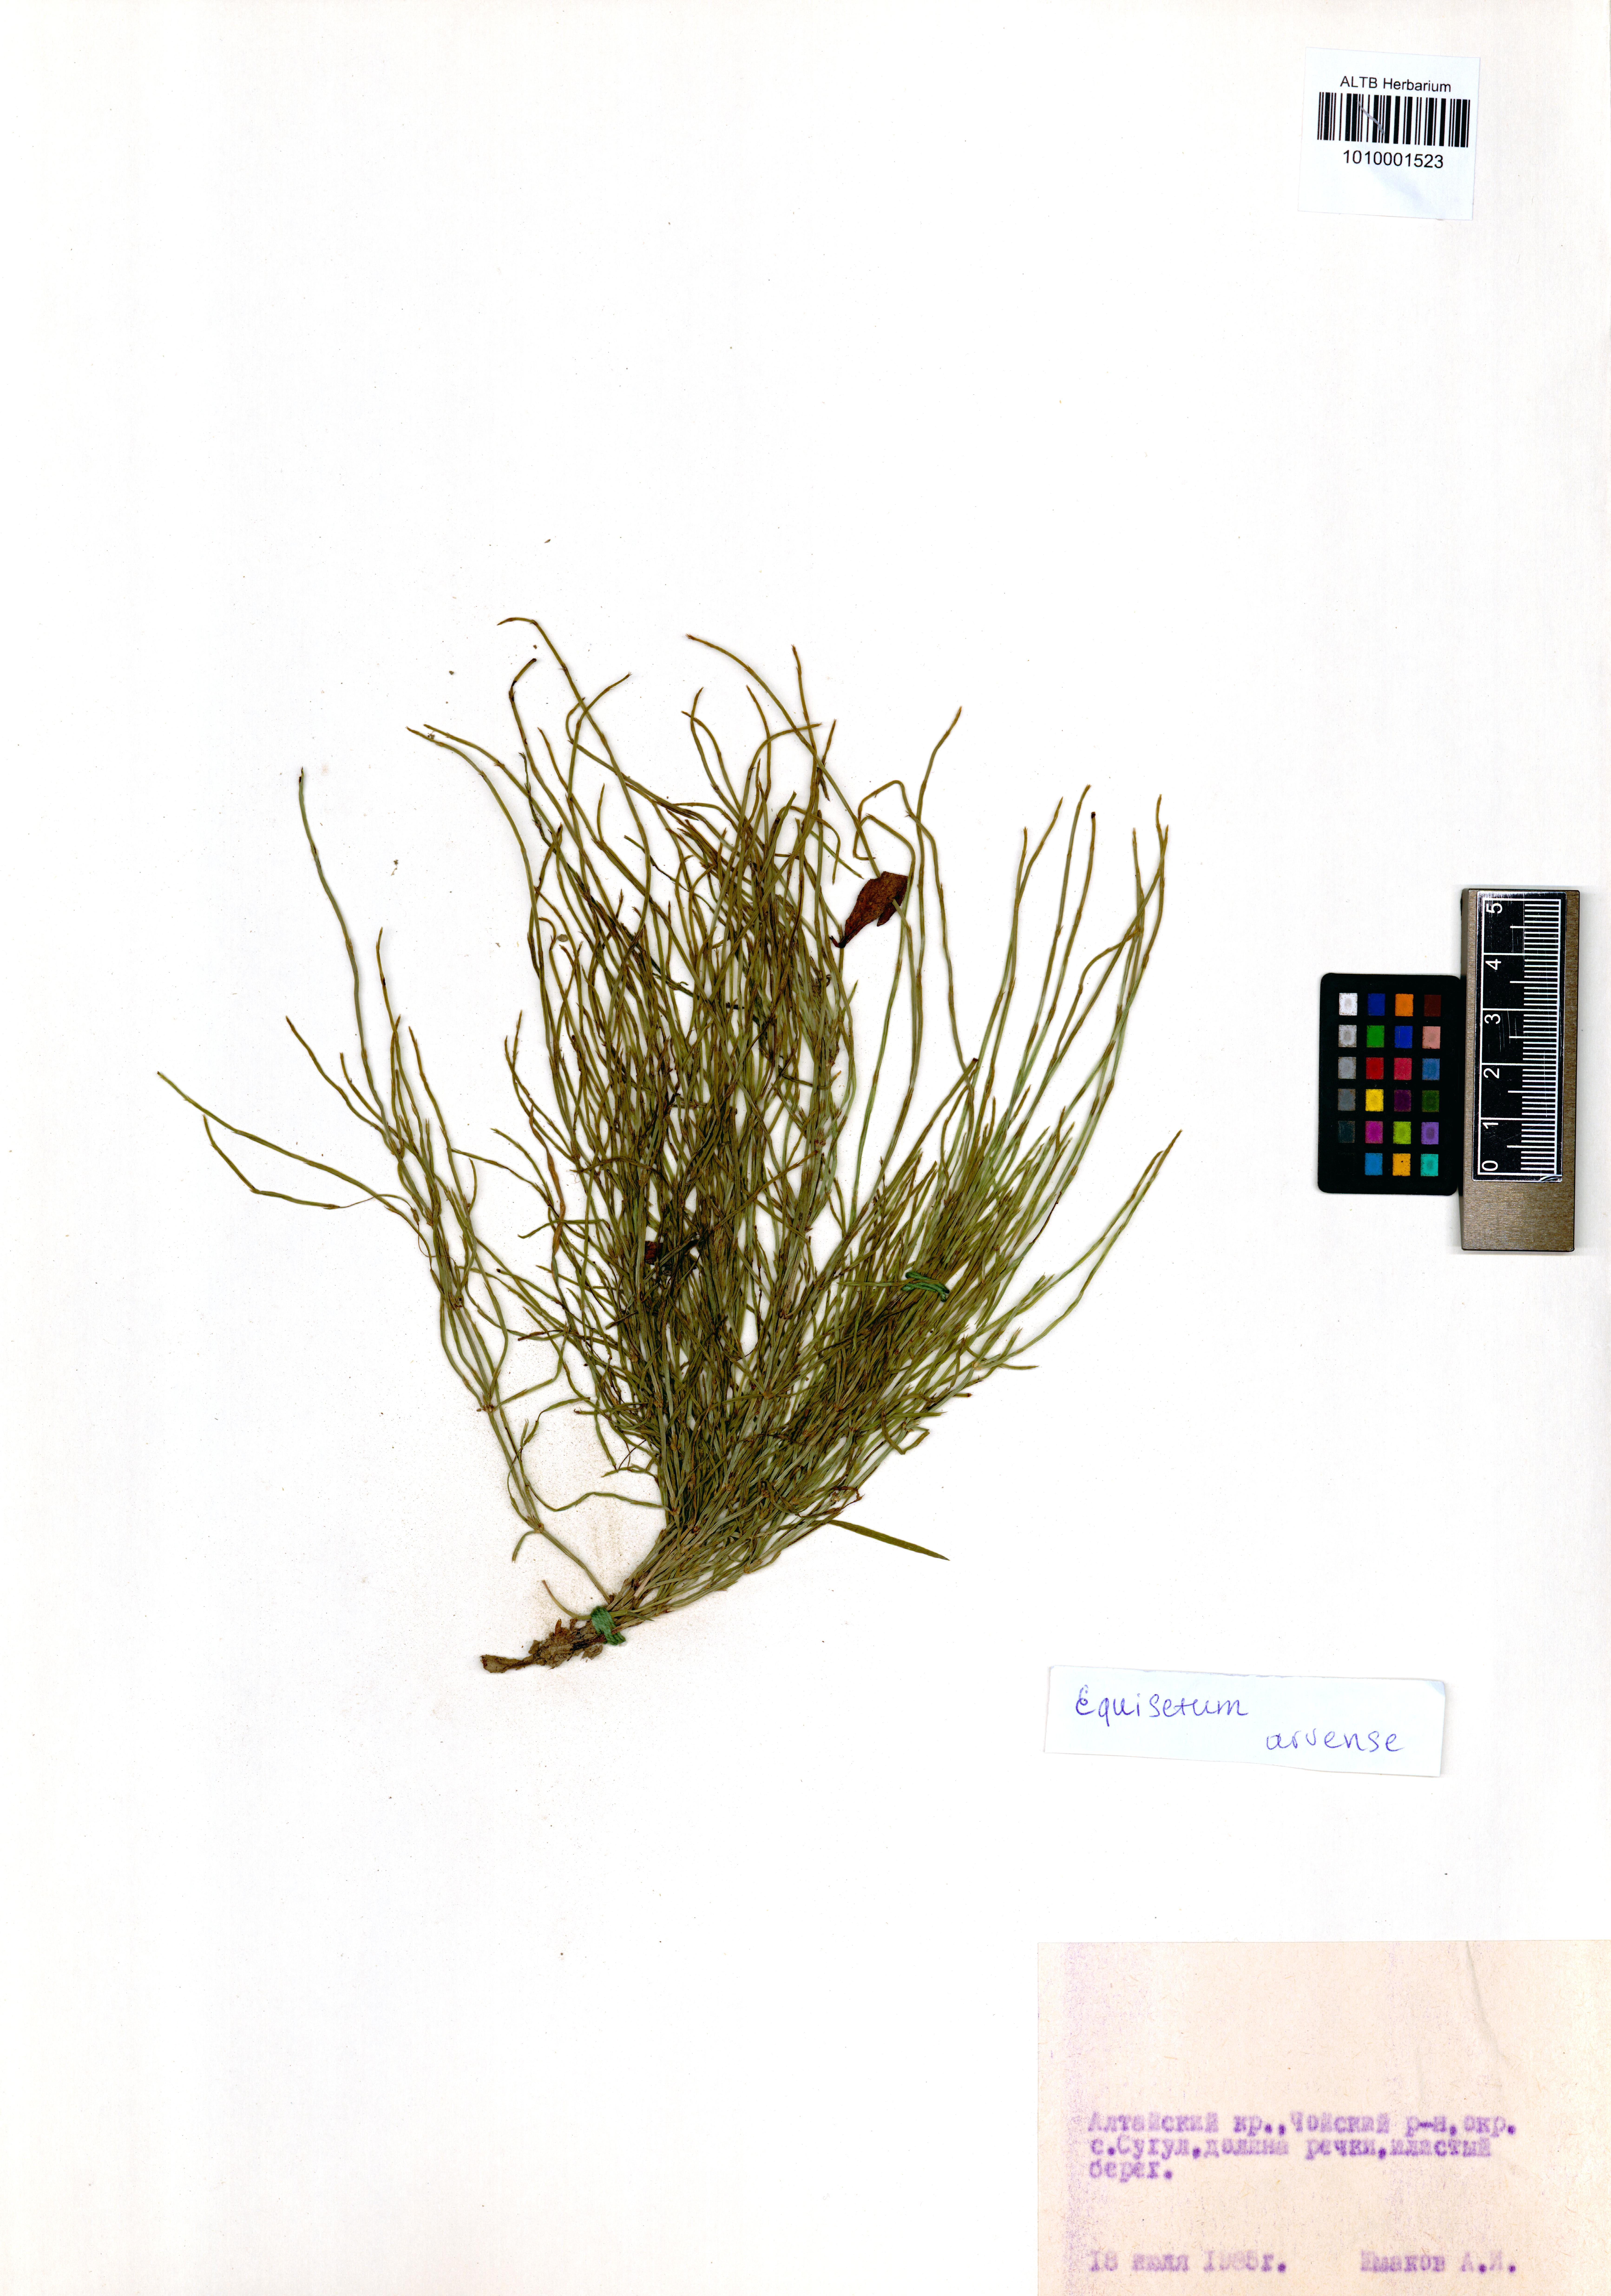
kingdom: Plantae
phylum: Tracheophyta
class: Polypodiopsida
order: Equisetales
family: Equisetaceae
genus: Equisetum
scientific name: Equisetum arvense
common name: Field horsetail
